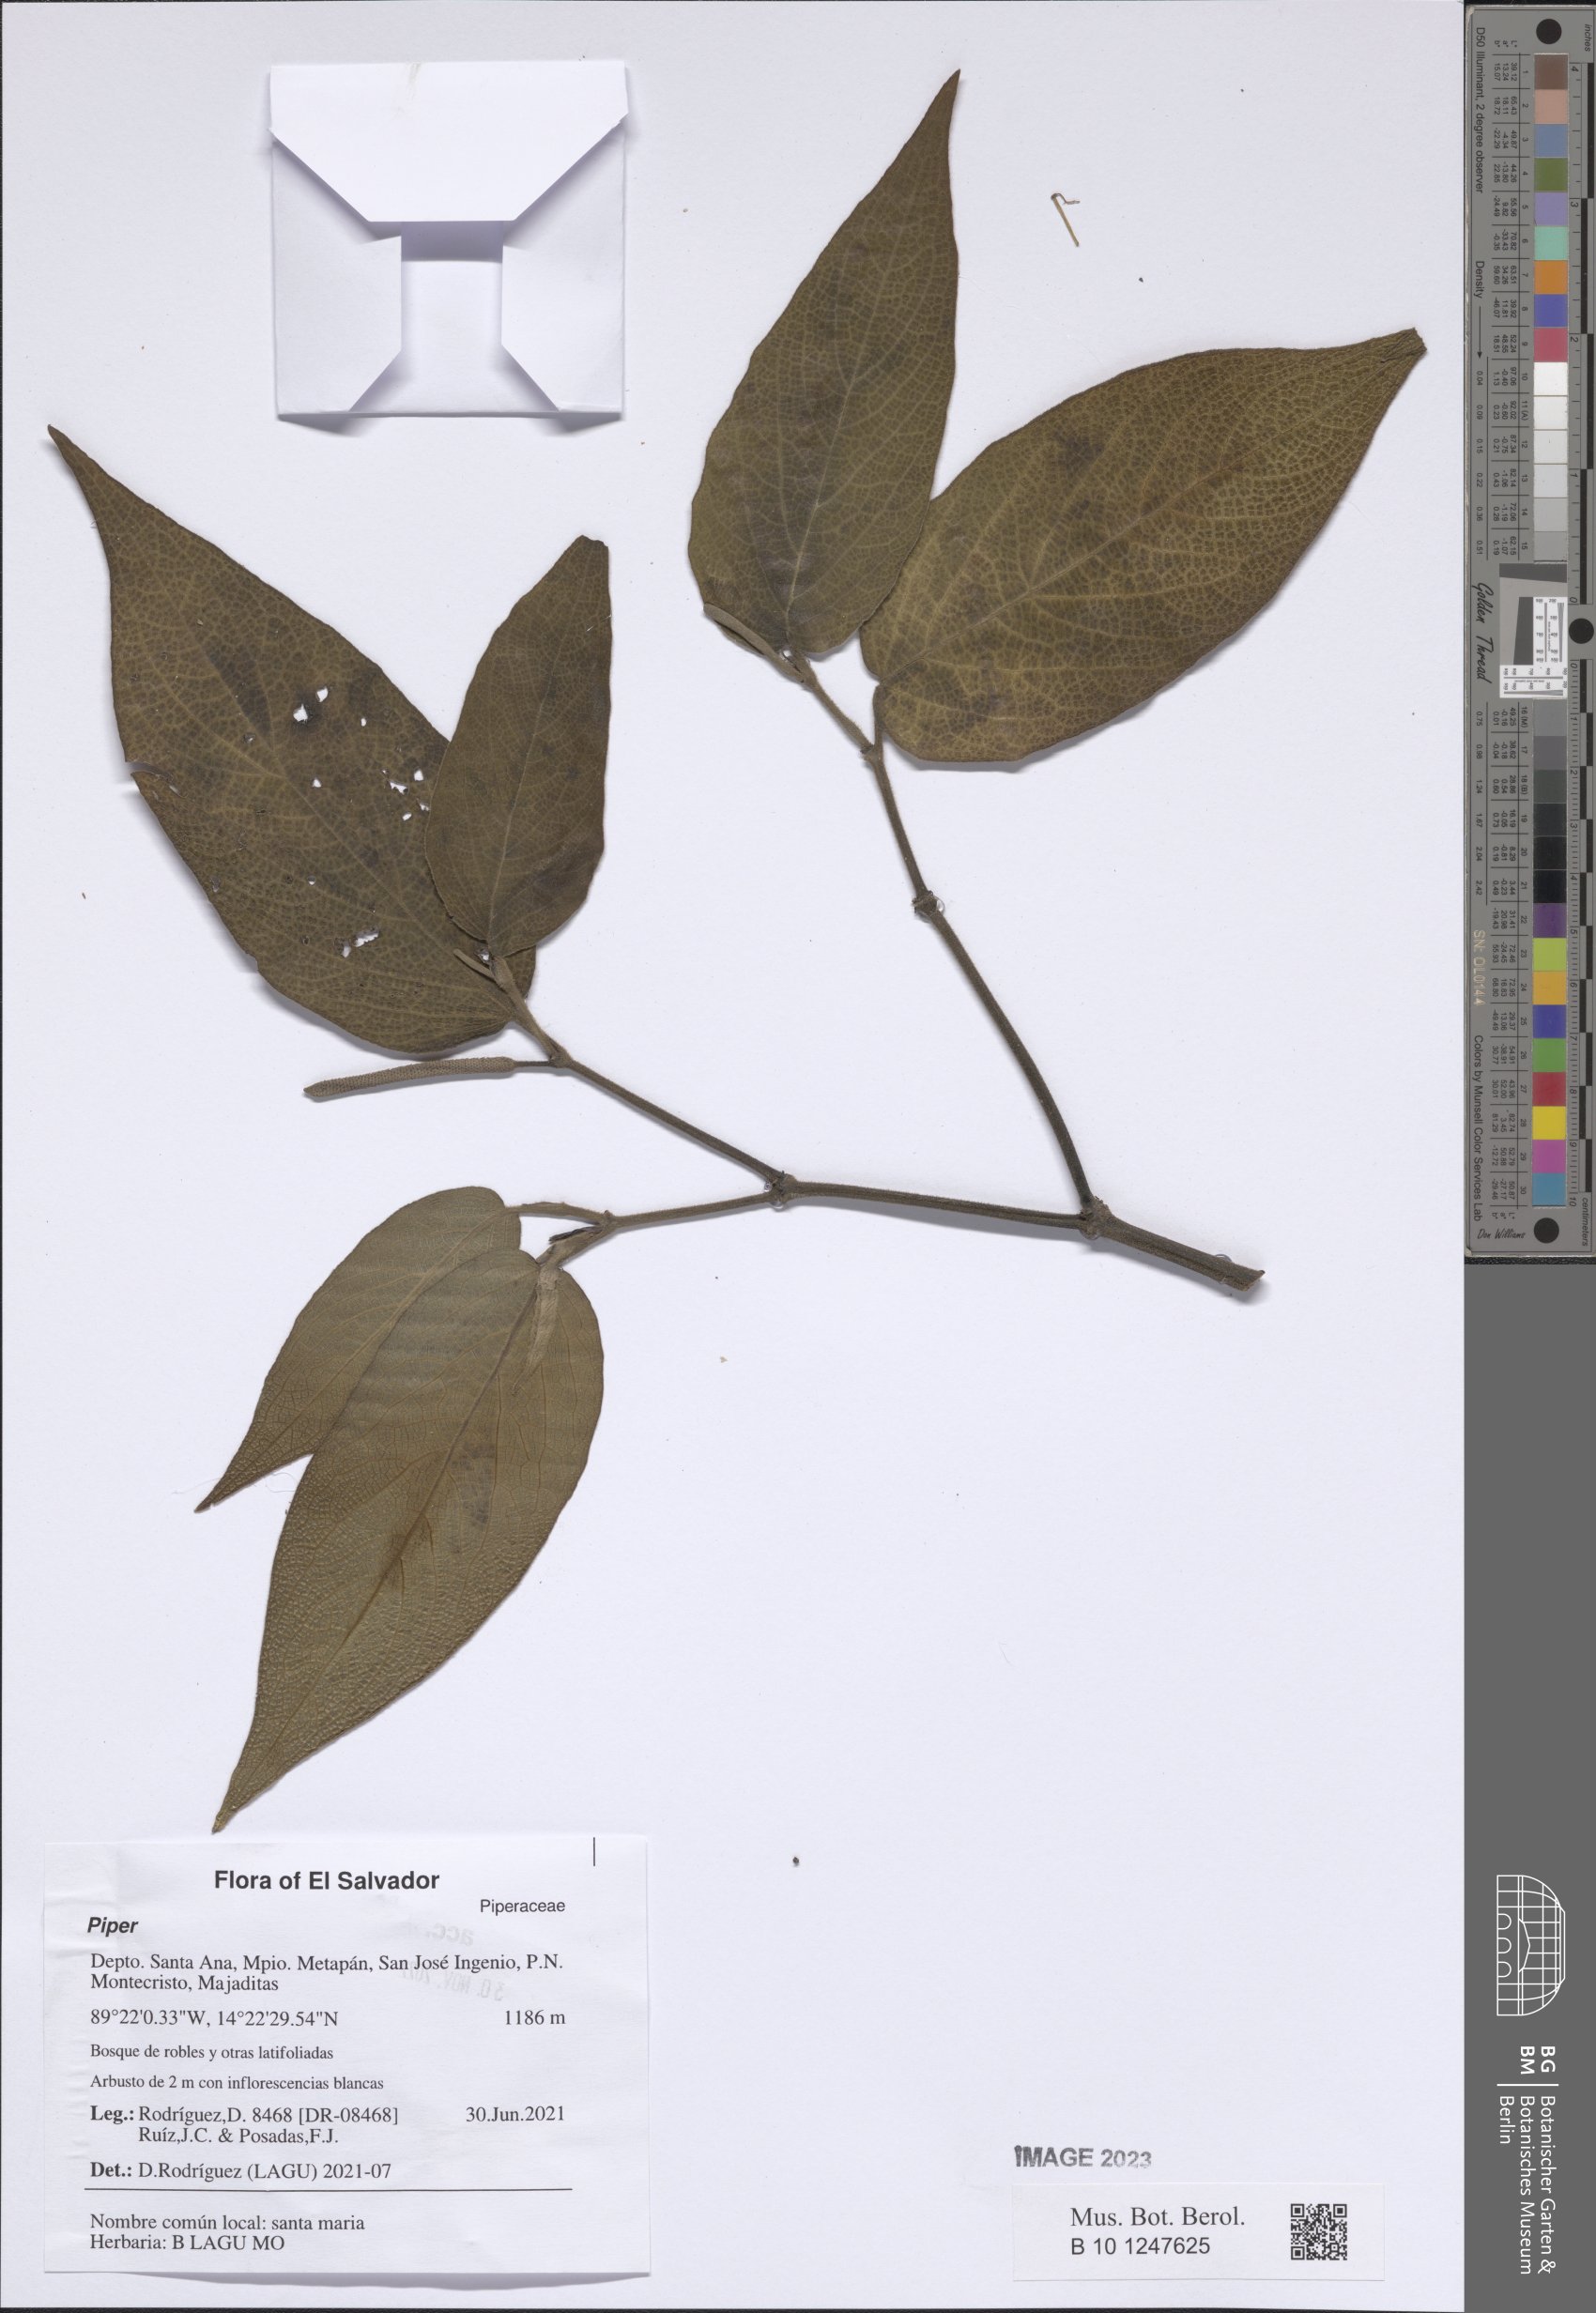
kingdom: Plantae
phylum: Tracheophyta
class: Magnoliopsida
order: Piperales
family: Piperaceae
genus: Piper
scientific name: Piper
